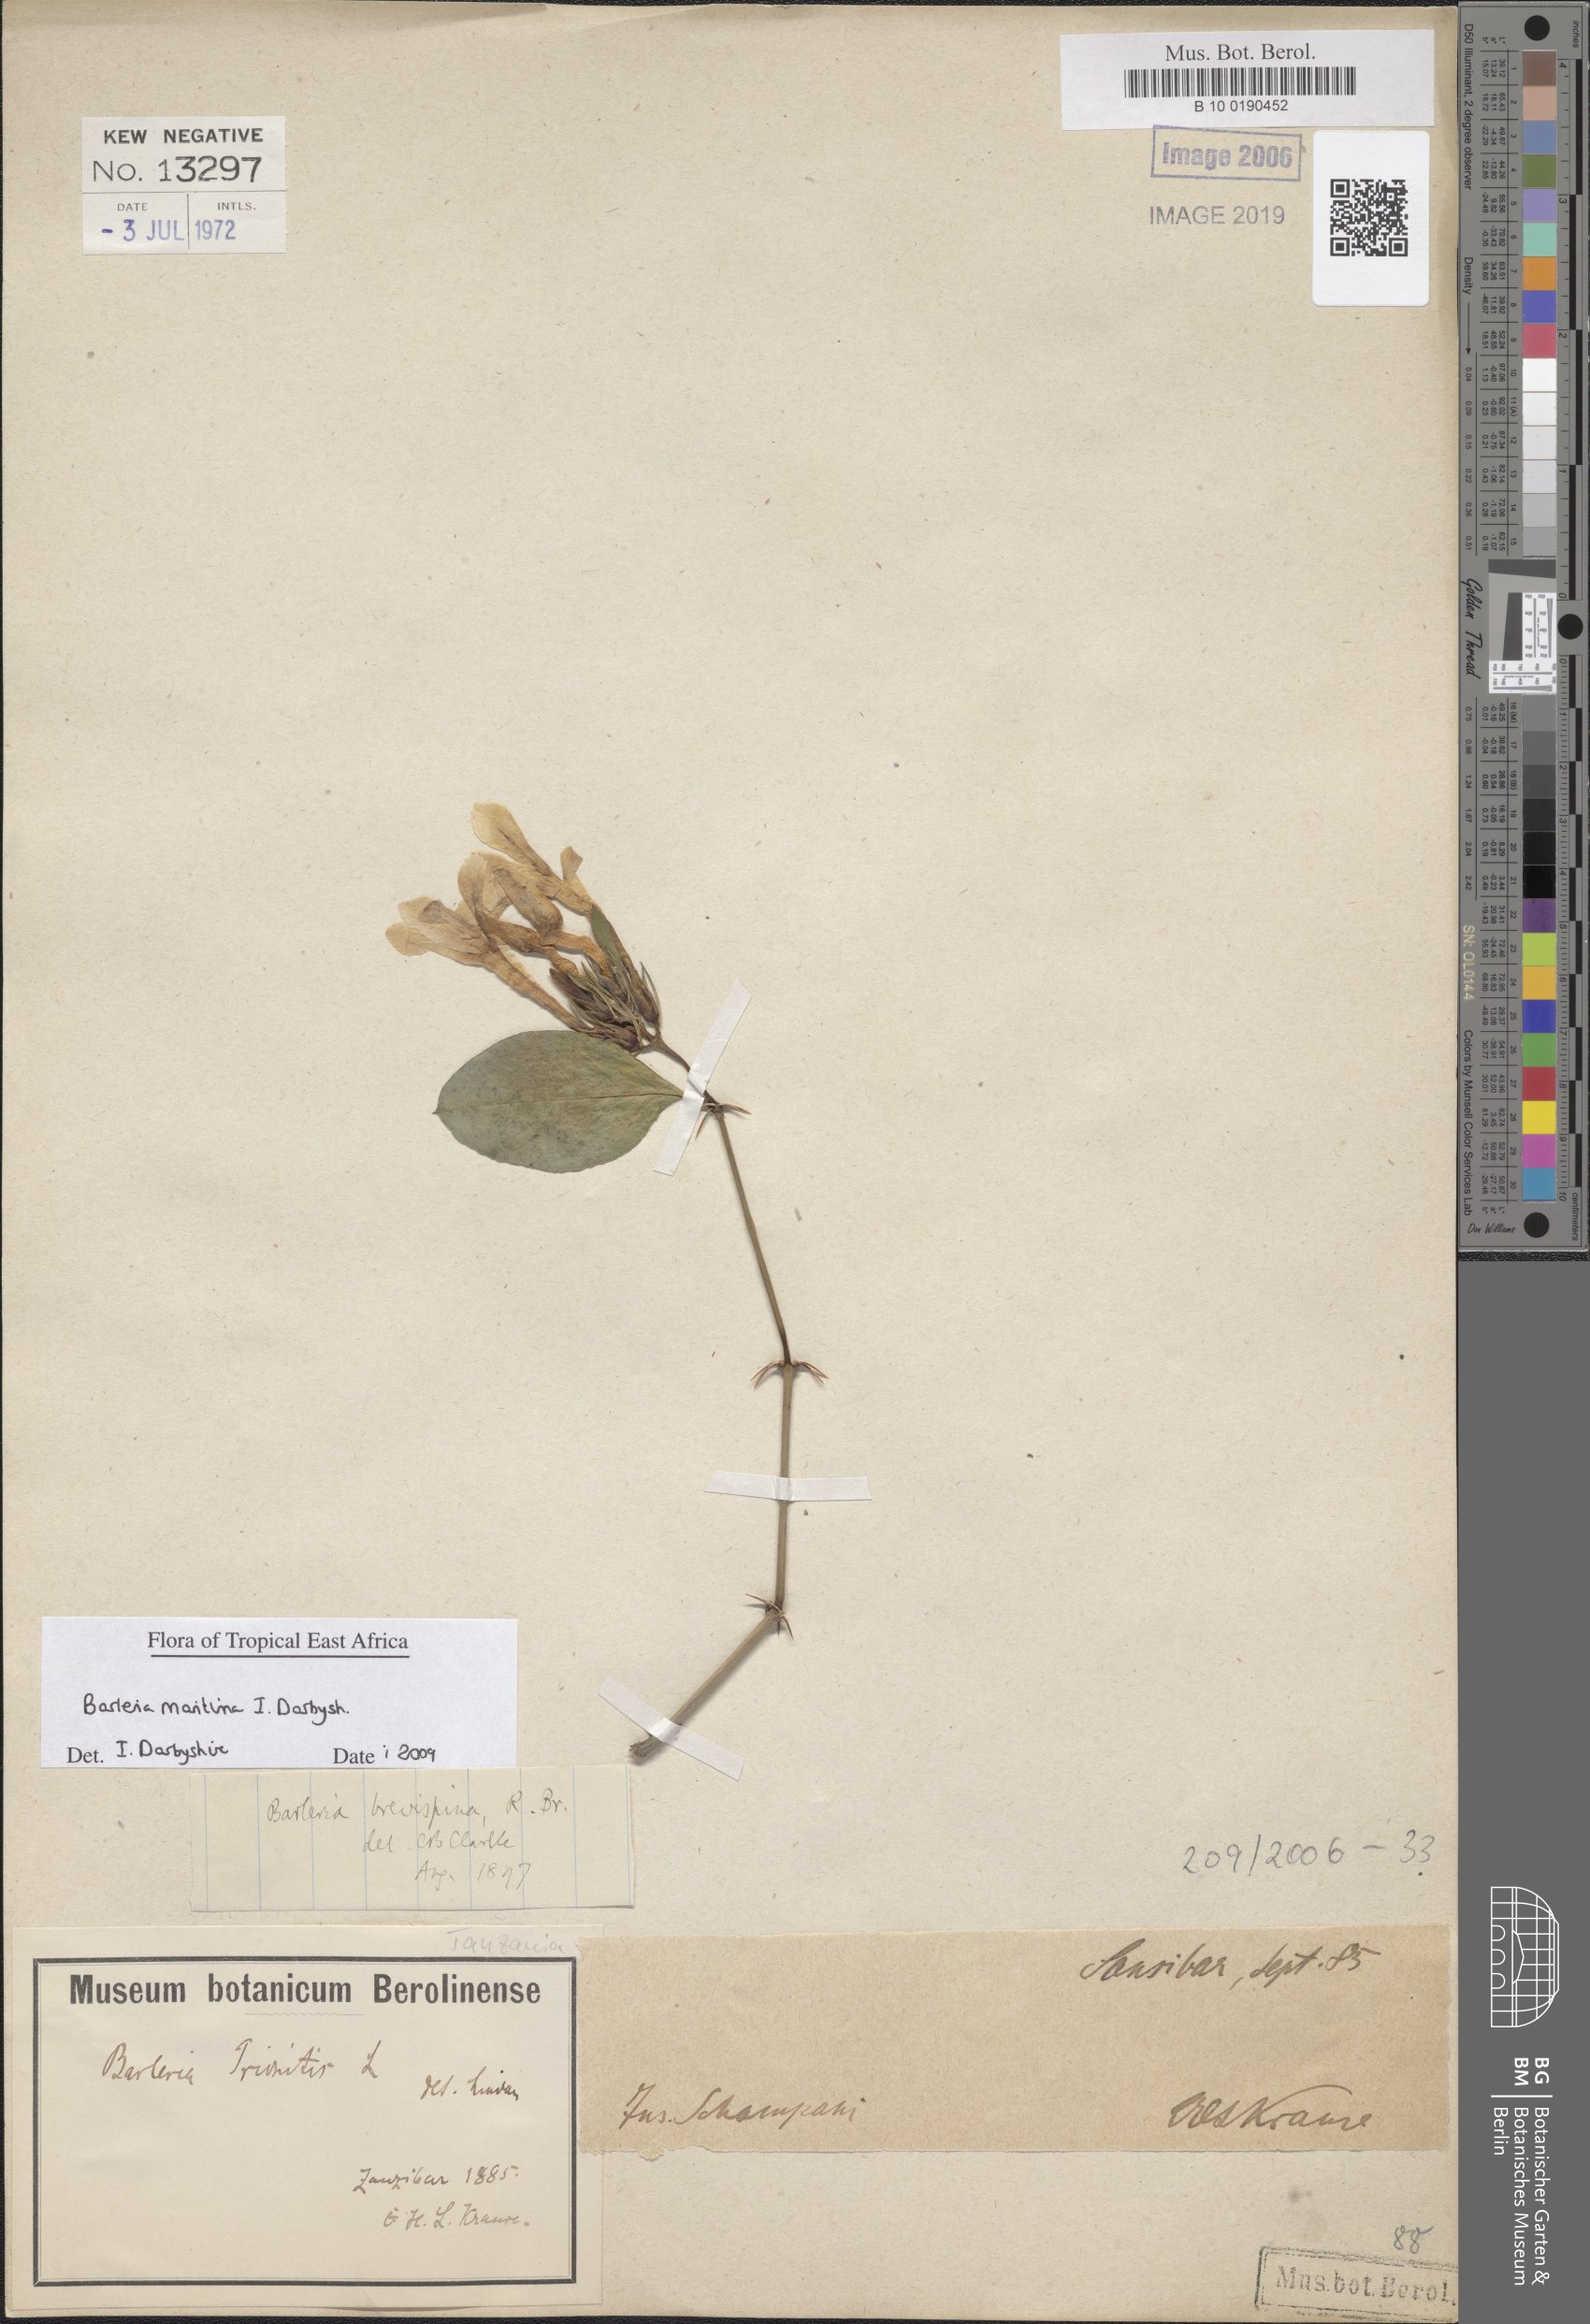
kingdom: Plantae
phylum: Tracheophyta
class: Magnoliopsida
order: Lamiales
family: Acanthaceae
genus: Barleria
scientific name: Barleria quadrispina
